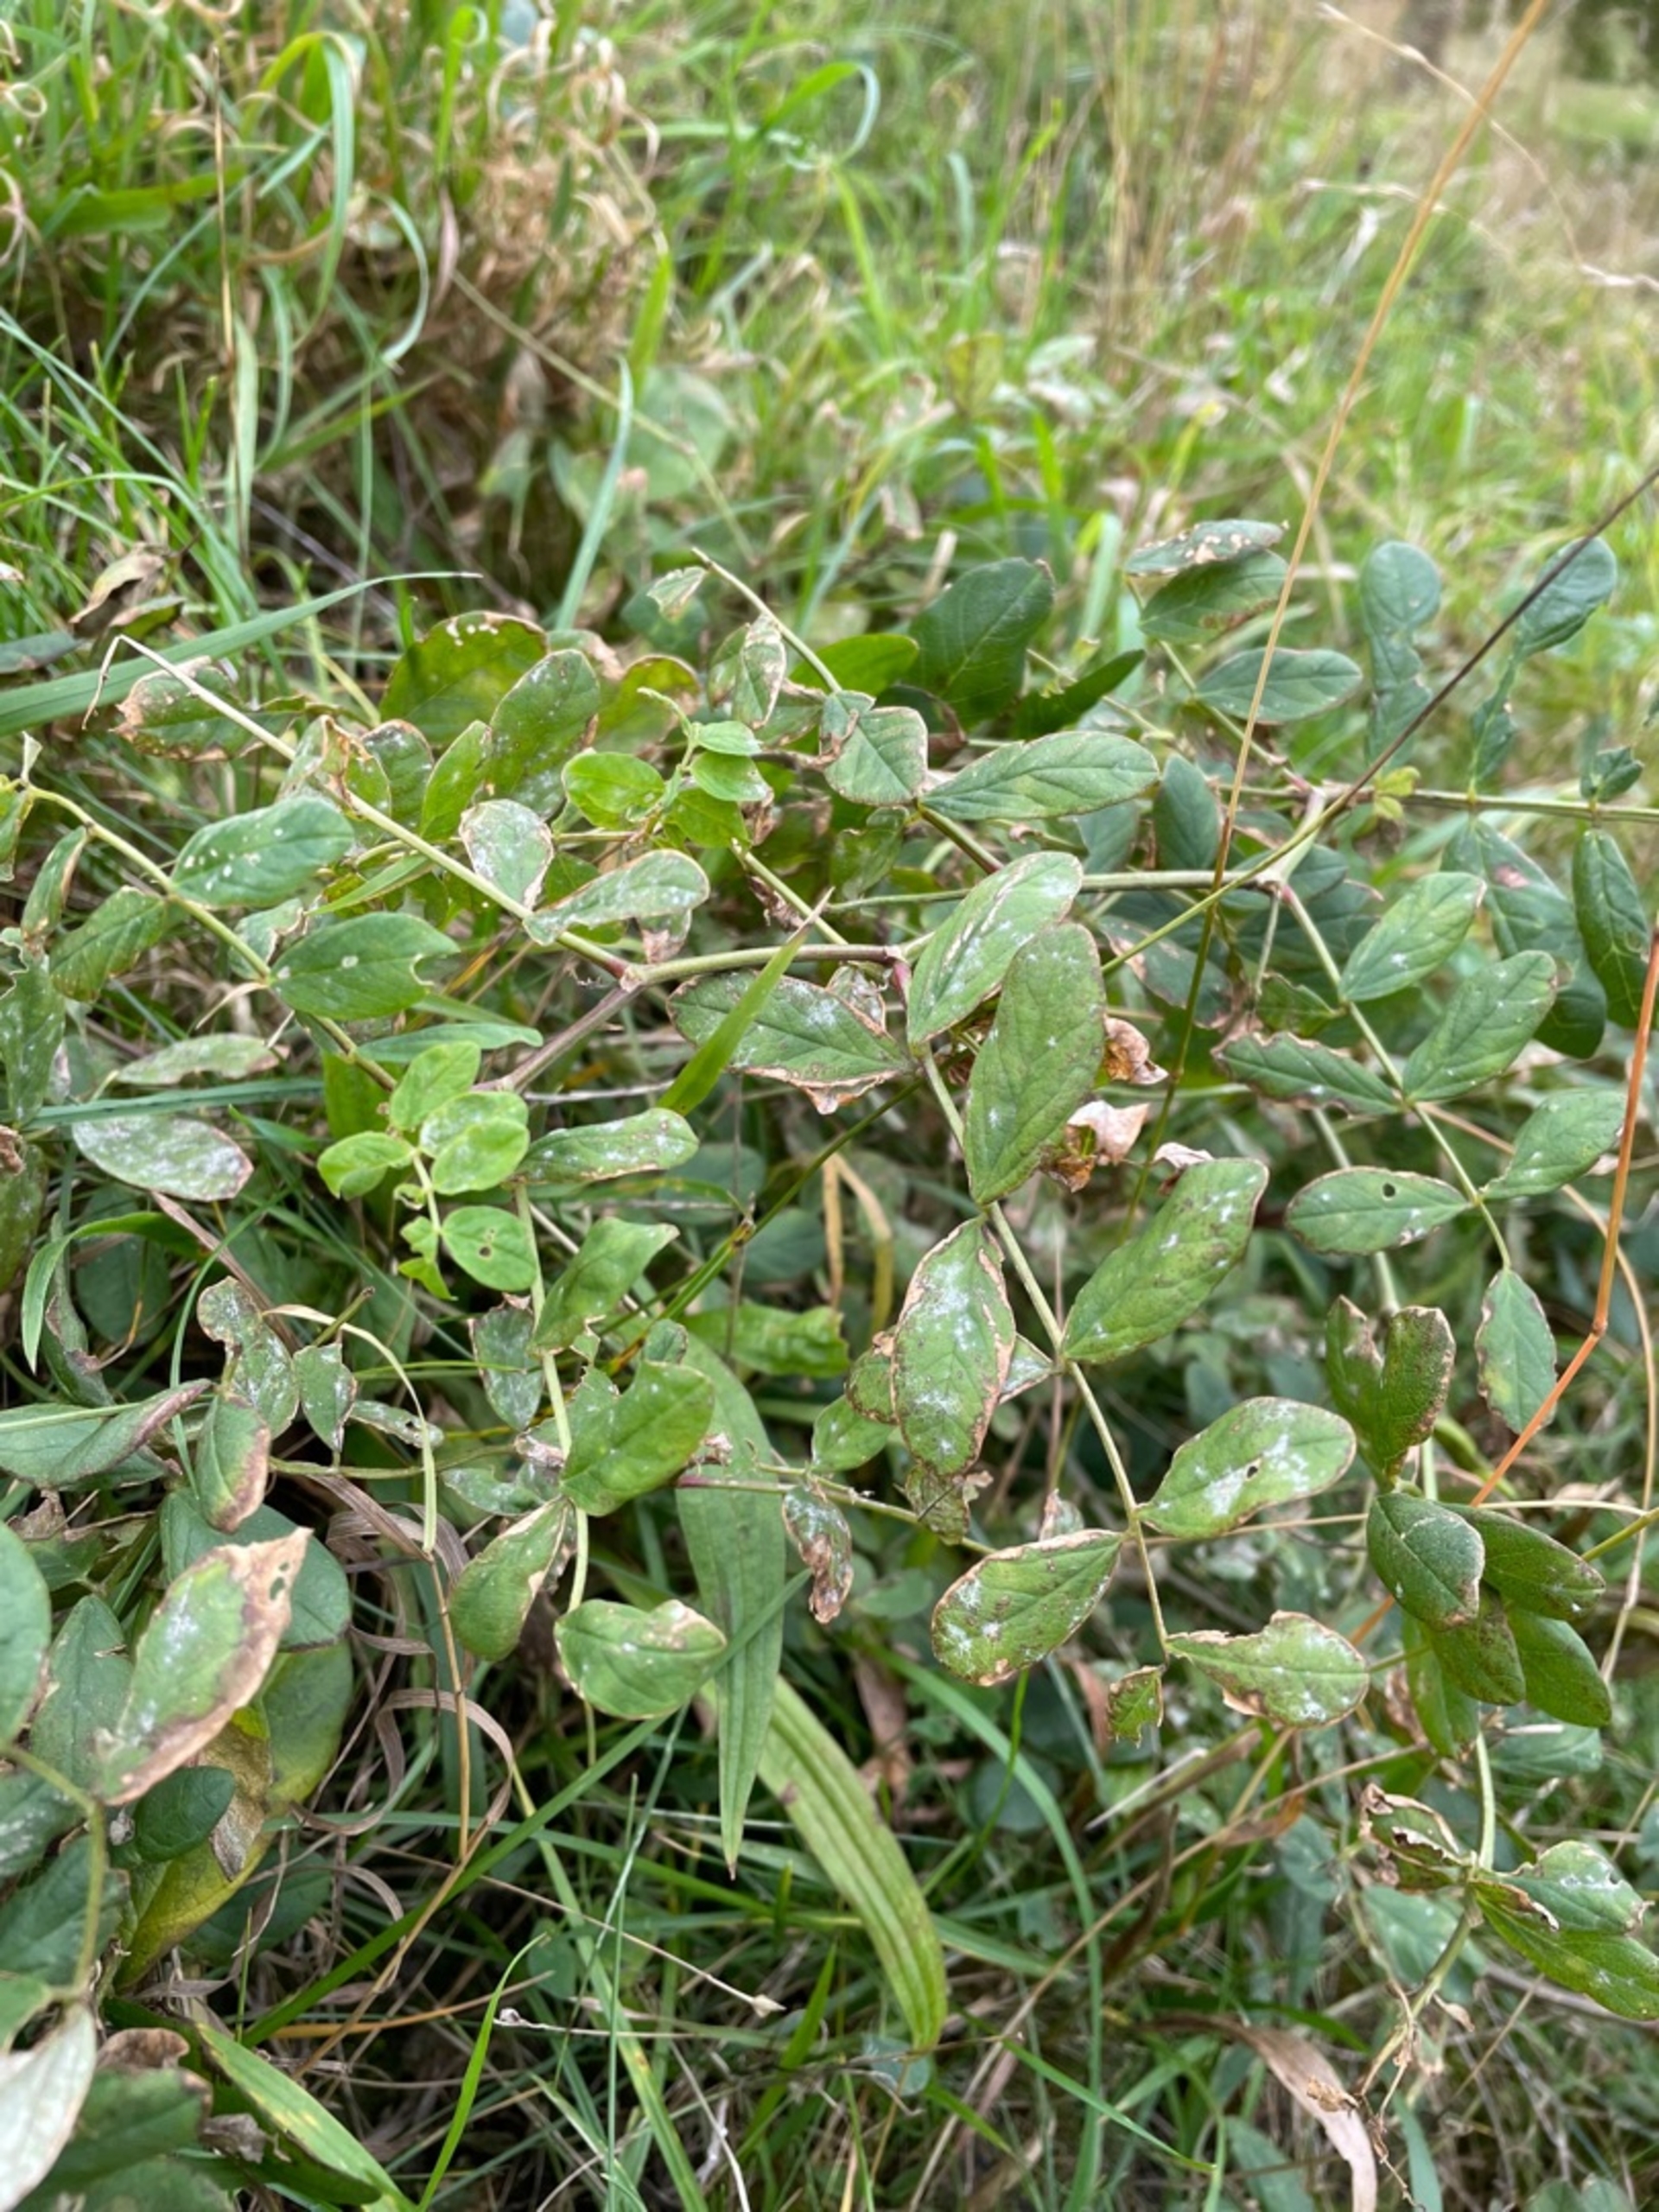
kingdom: Plantae
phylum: Tracheophyta
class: Magnoliopsida
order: Fabales
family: Fabaceae
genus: Astragalus
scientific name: Astragalus glycyphyllos
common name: Sød astragel
